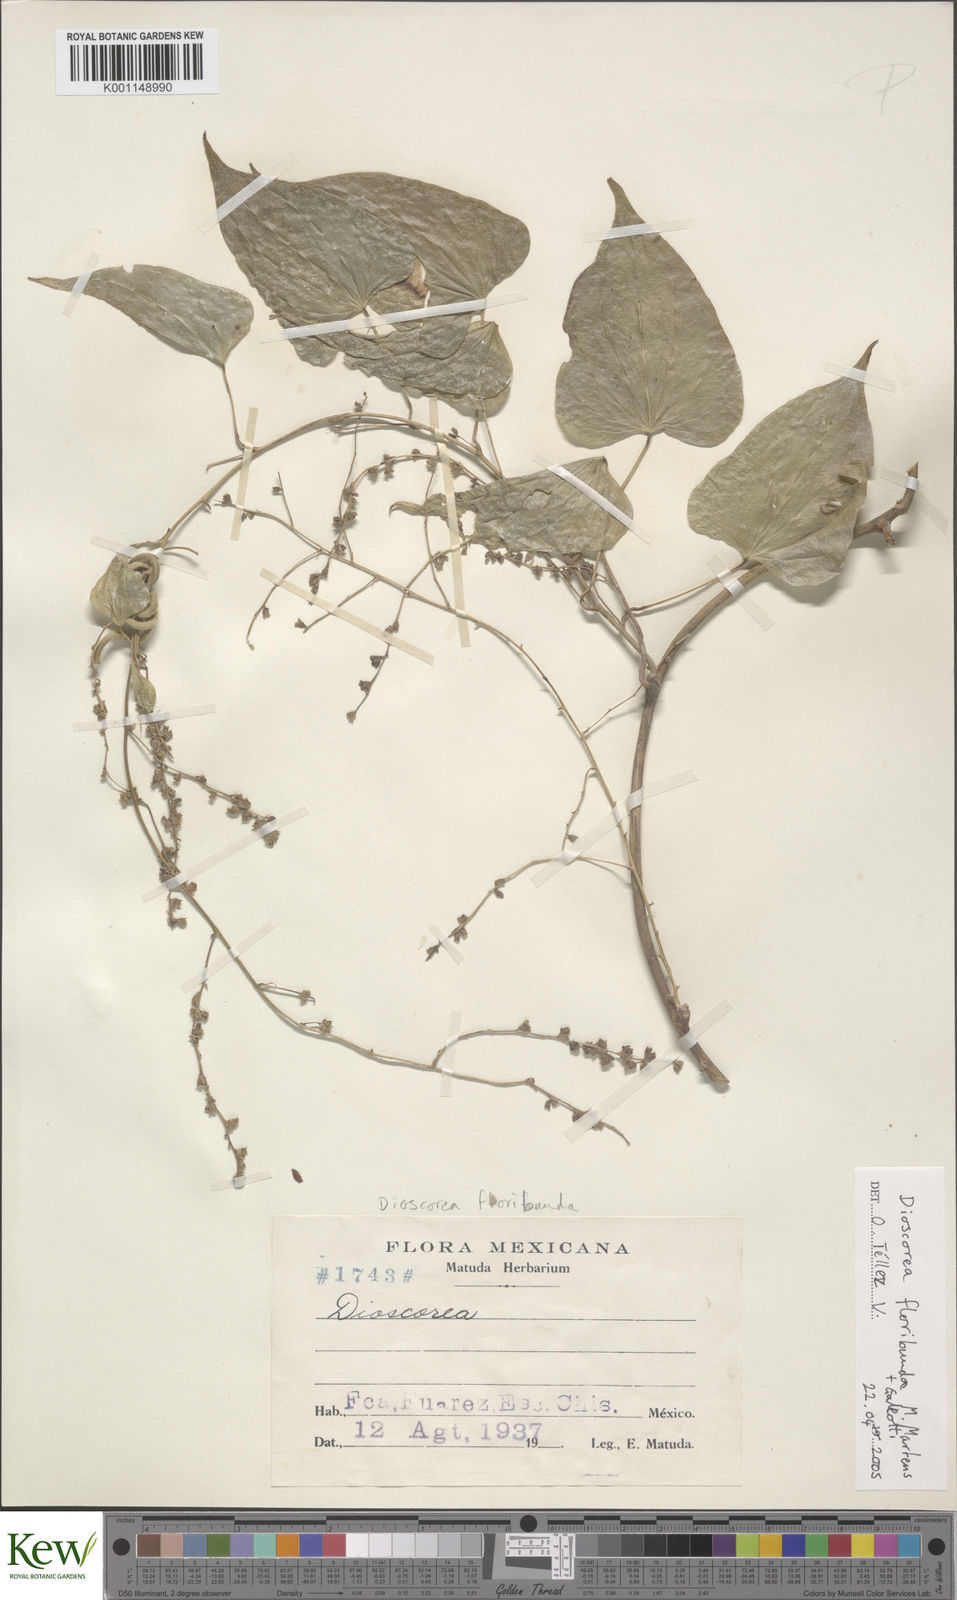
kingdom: Plantae
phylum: Tracheophyta
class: Liliopsida
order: Dioscoreales
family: Dioscoreaceae
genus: Dioscorea
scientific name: Dioscorea floribunda
